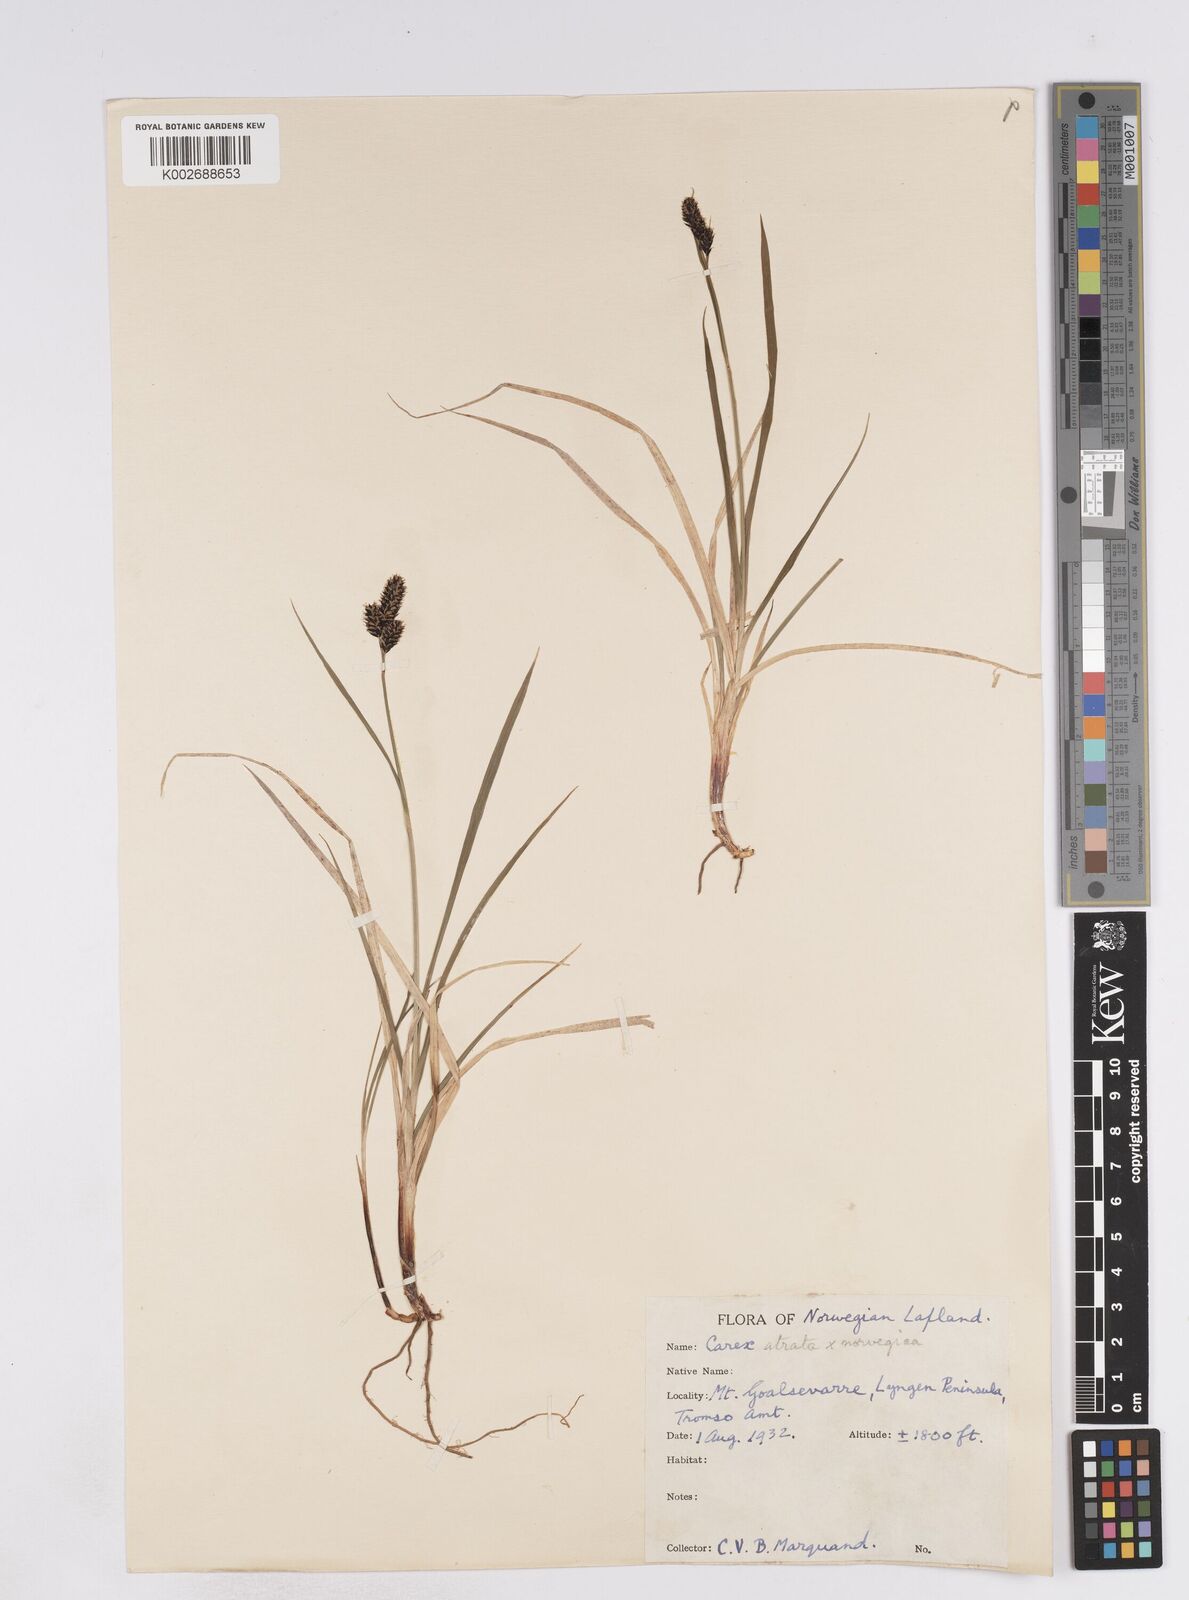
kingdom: Plantae
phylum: Tracheophyta
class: Liliopsida
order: Poales
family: Cyperaceae
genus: Carex
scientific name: Carex norvegica
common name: Close-headed alpine-sedge
